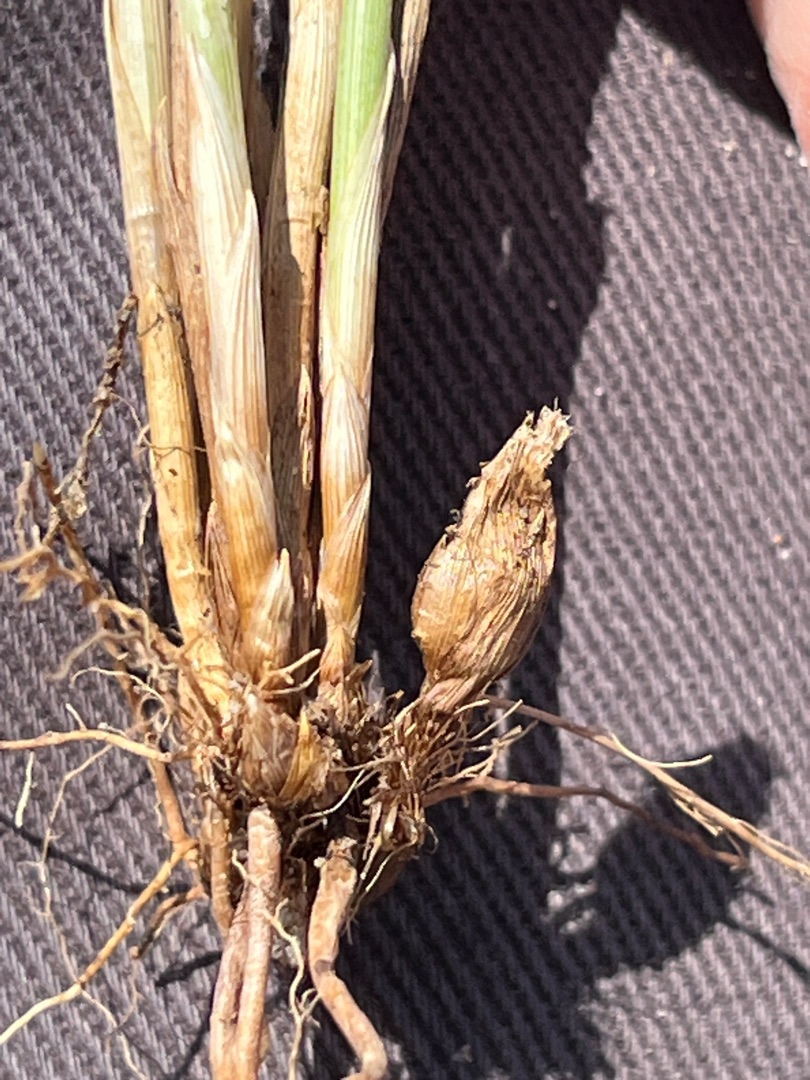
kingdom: Animalia
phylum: Arthropoda
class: Insecta
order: Diptera
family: Cecidomyiidae
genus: Planetella
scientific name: Planetella arenariae
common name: Sandstargalmyg
